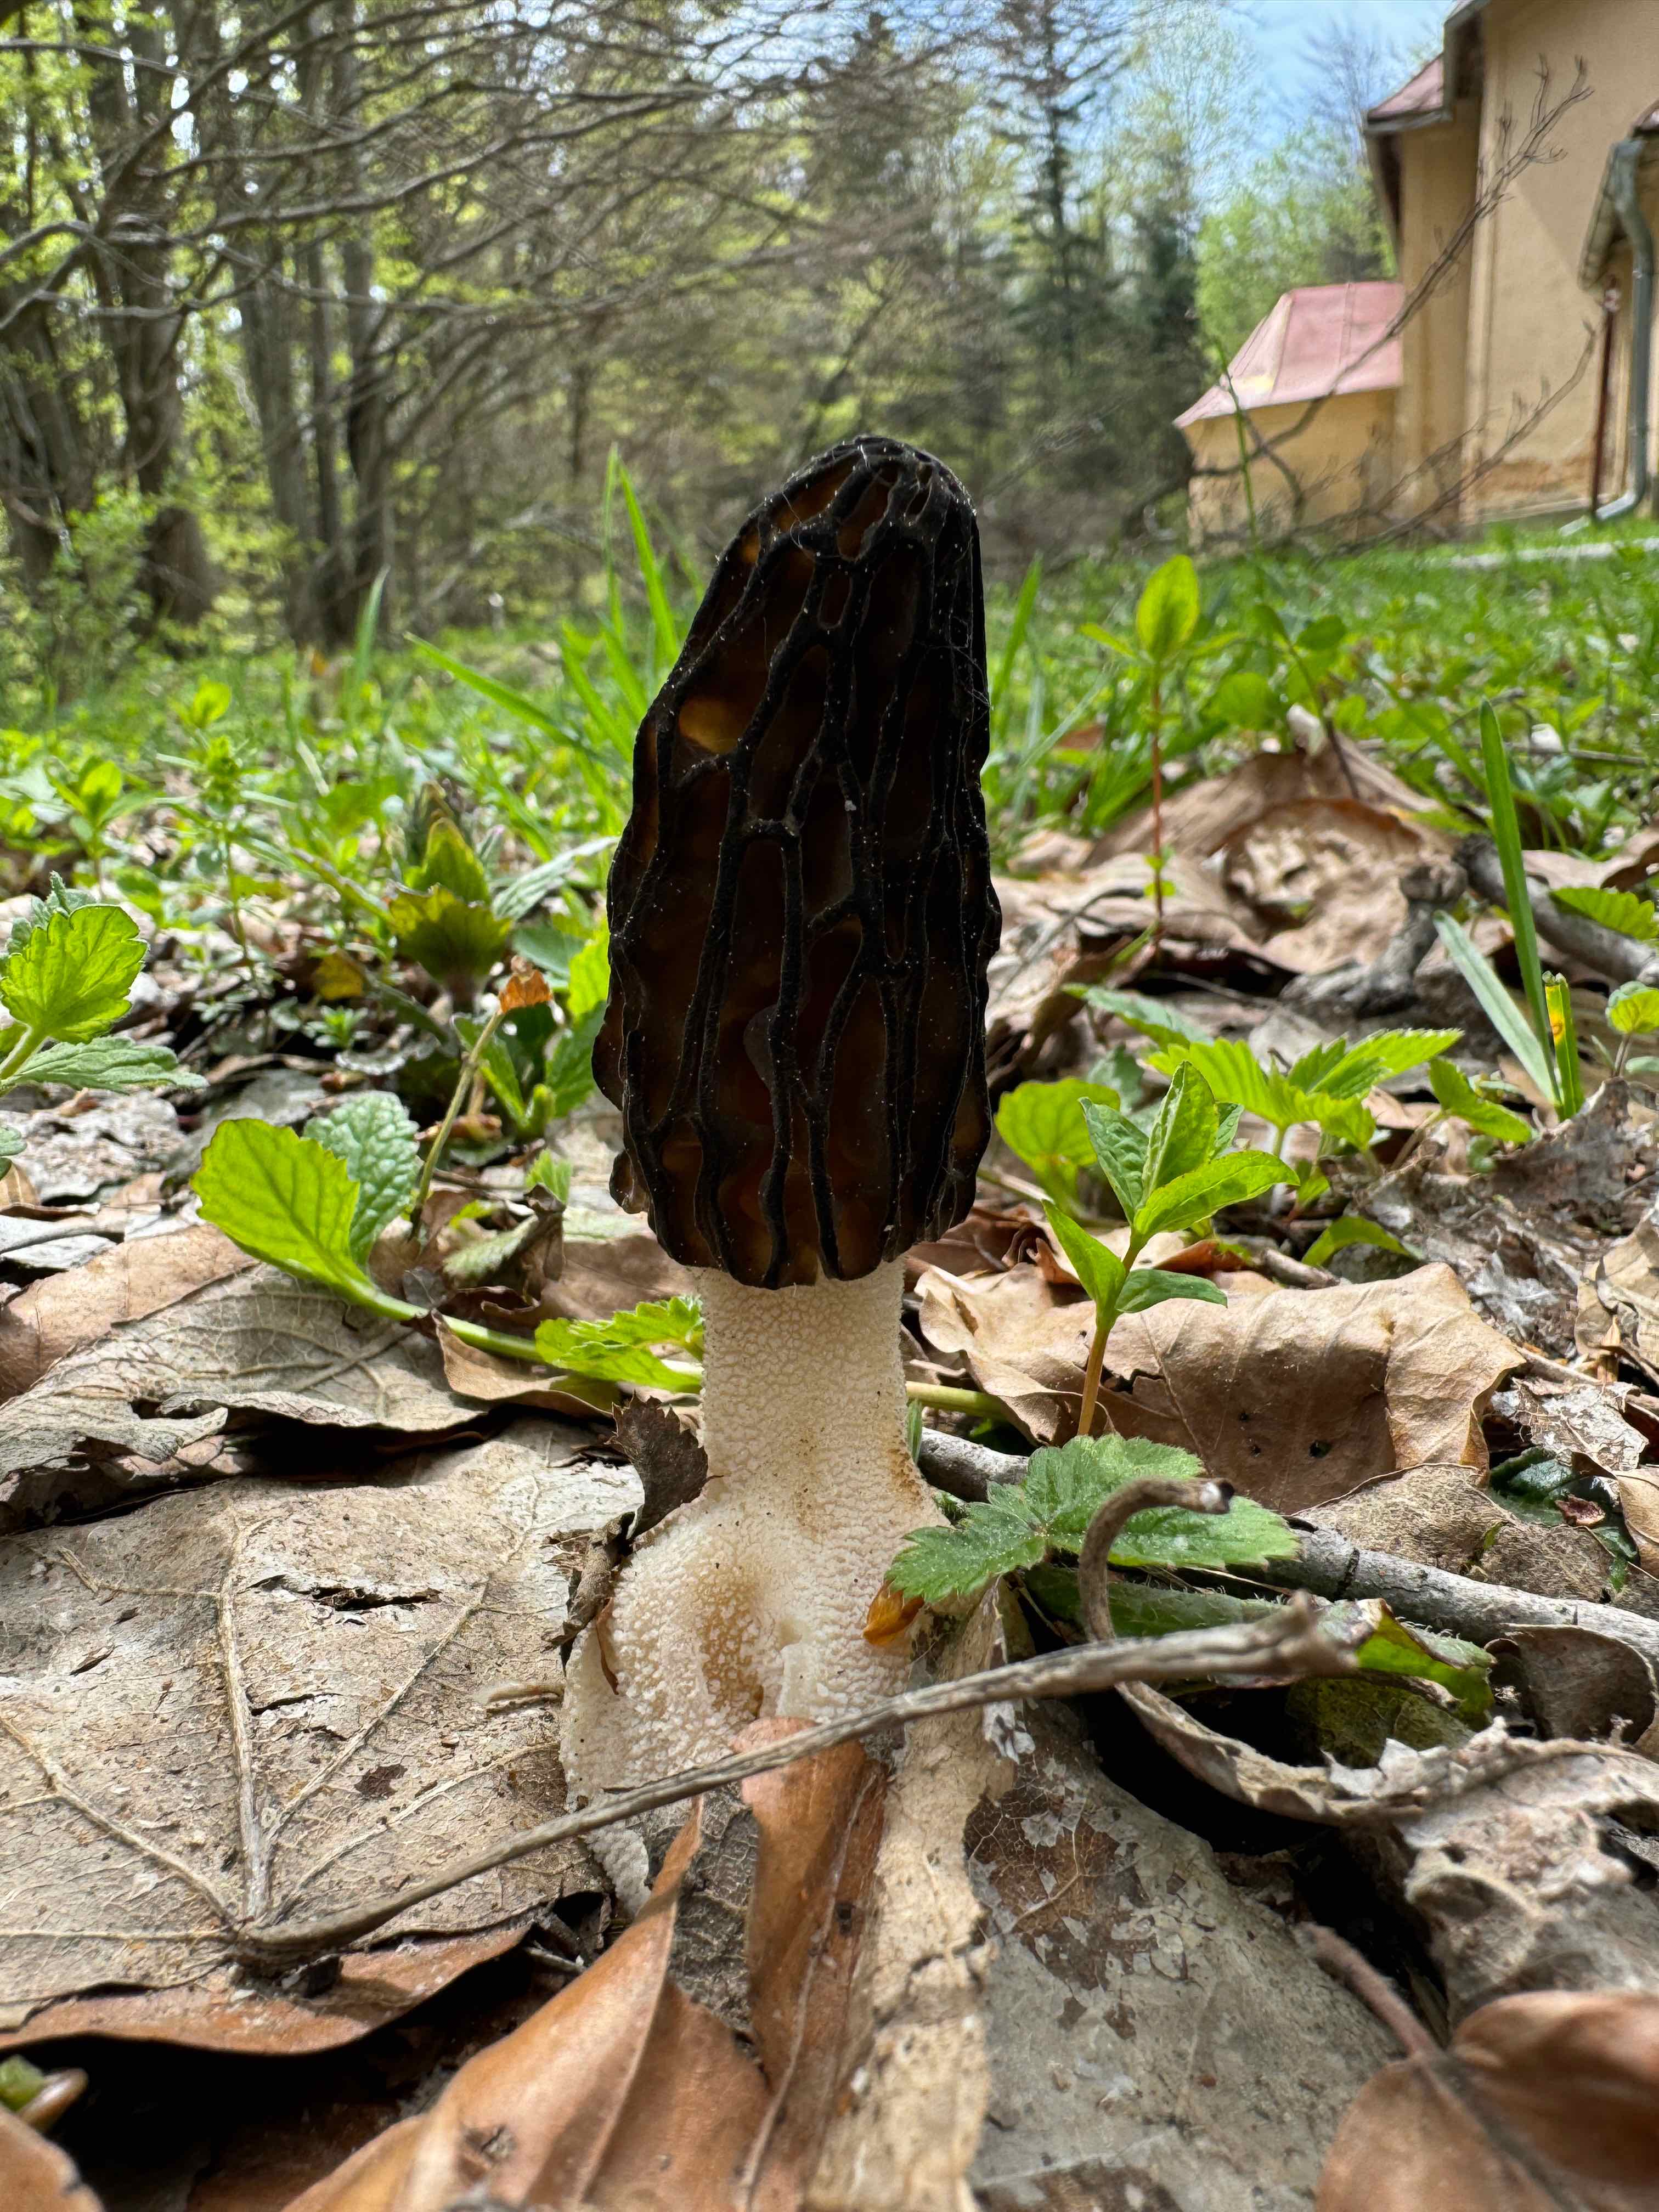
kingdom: Fungi
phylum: Ascomycota
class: Pezizomycetes
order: Pezizales
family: Morchellaceae
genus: Morchella
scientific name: Morchella esculenta
